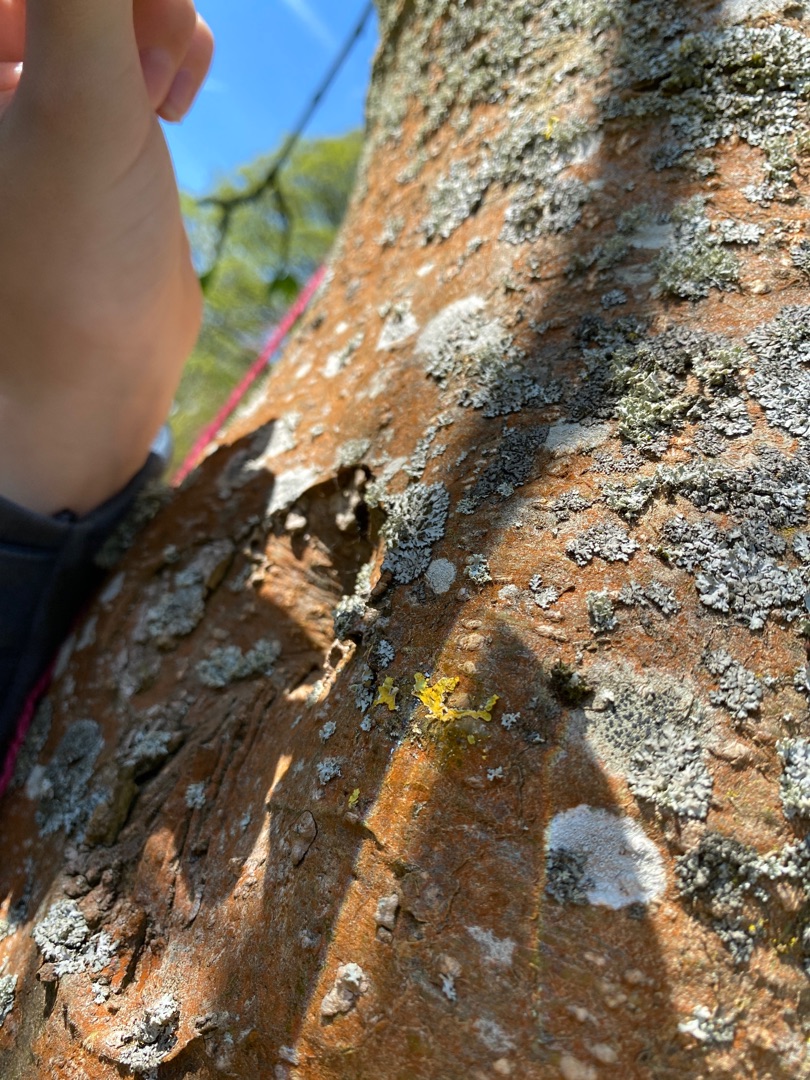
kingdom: Fungi
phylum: Ascomycota
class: Lecanoromycetes
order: Teloschistales
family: Teloschistaceae
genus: Xanthoria
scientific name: Xanthoria parietina
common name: Almindelig væggelav
